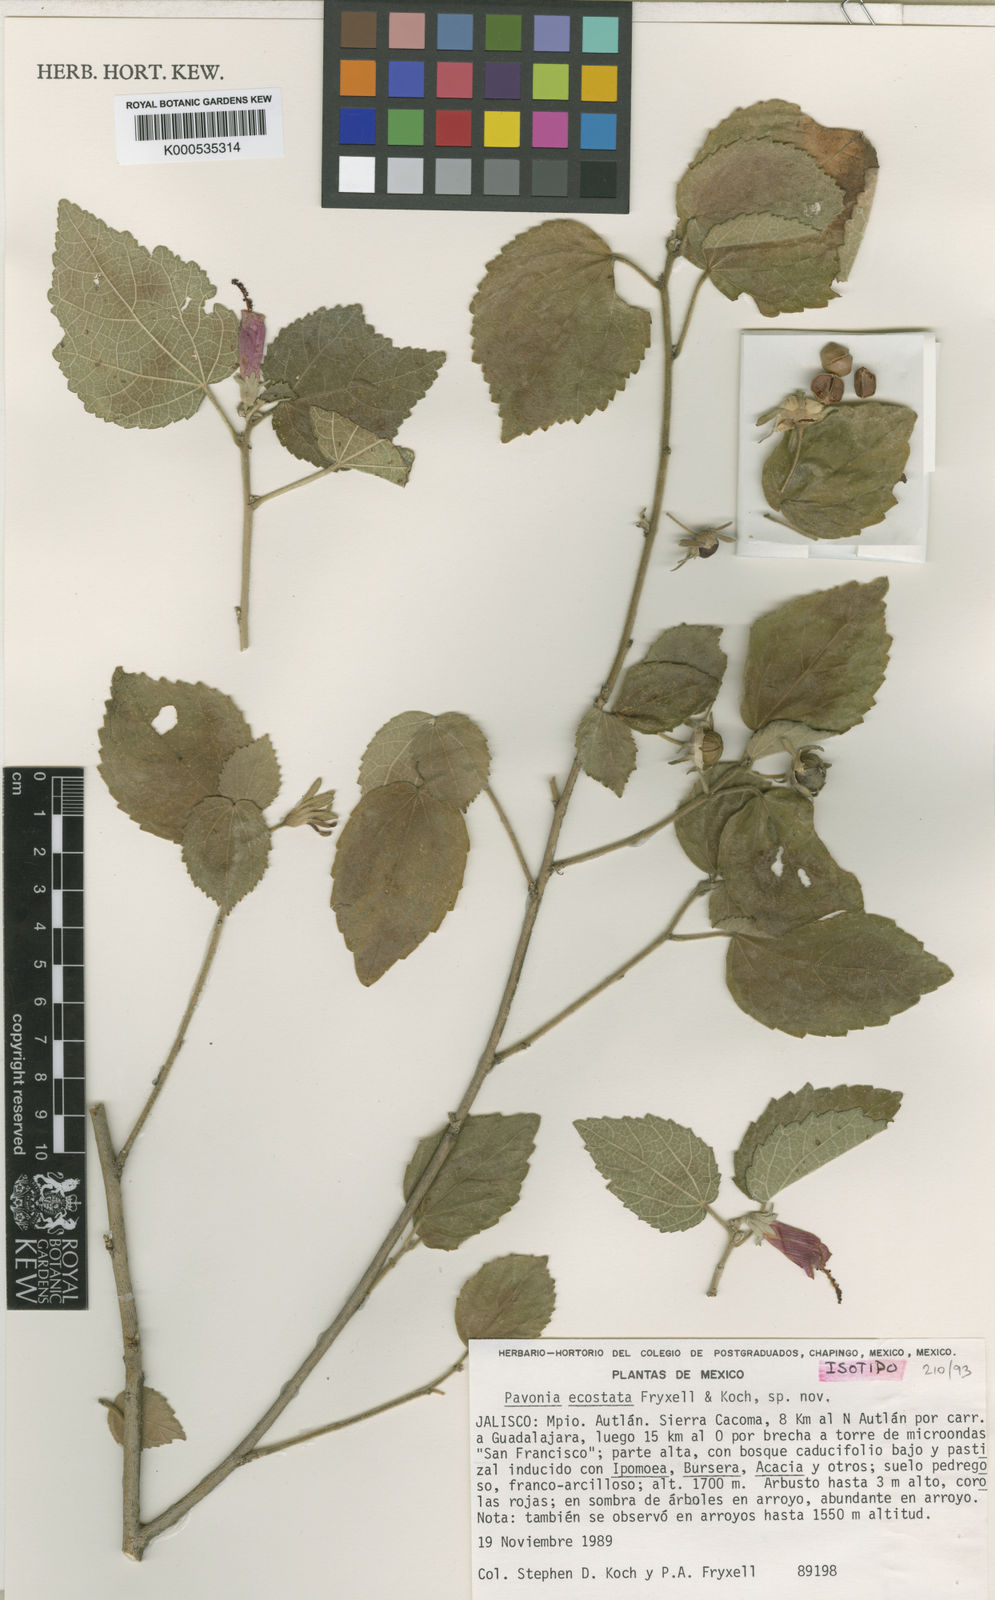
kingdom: Plantae
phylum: Tracheophyta
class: Magnoliopsida
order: Malvales
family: Malvaceae
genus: Pavonia
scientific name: Pavonia ecostata
